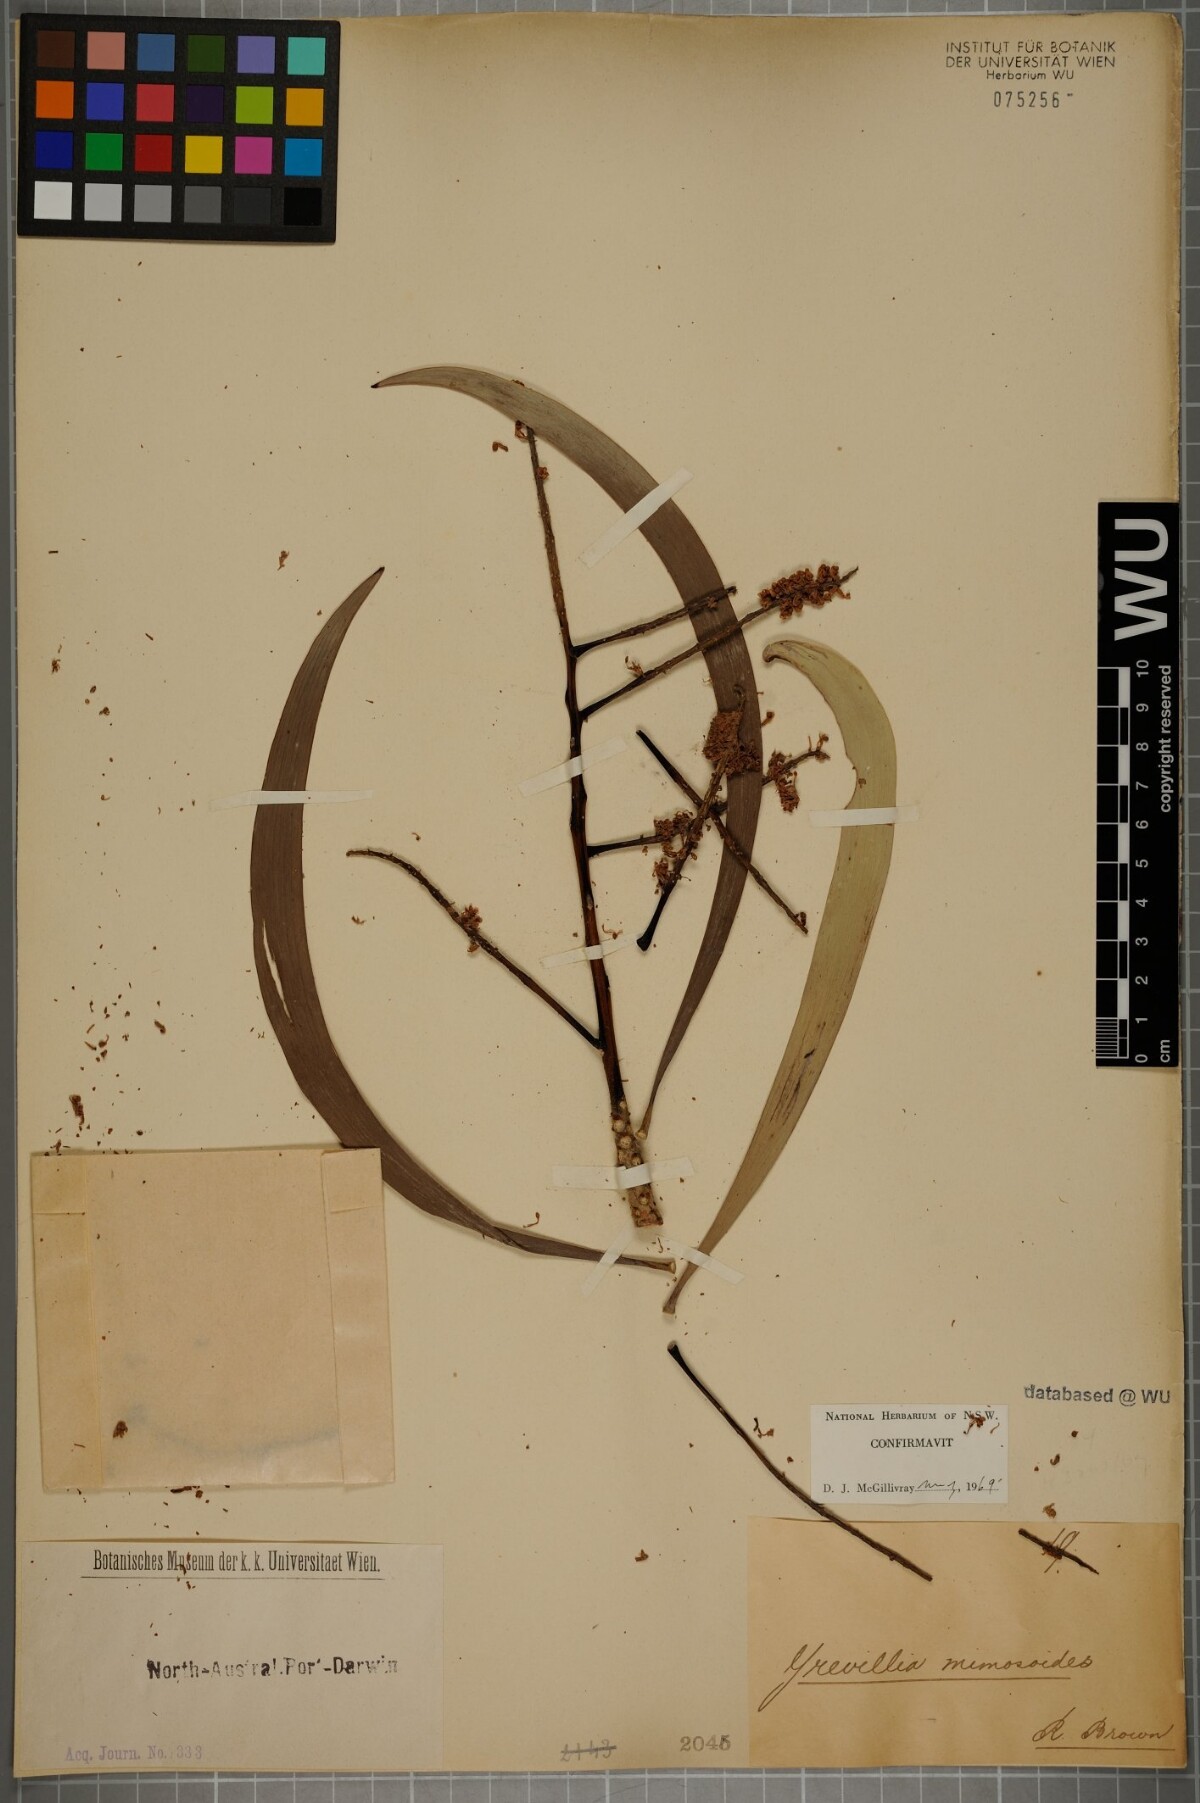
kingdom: Plantae
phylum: Tracheophyta
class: Magnoliopsida
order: Proteales
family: Proteaceae
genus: Grevillea
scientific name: Grevillea mimosoides
